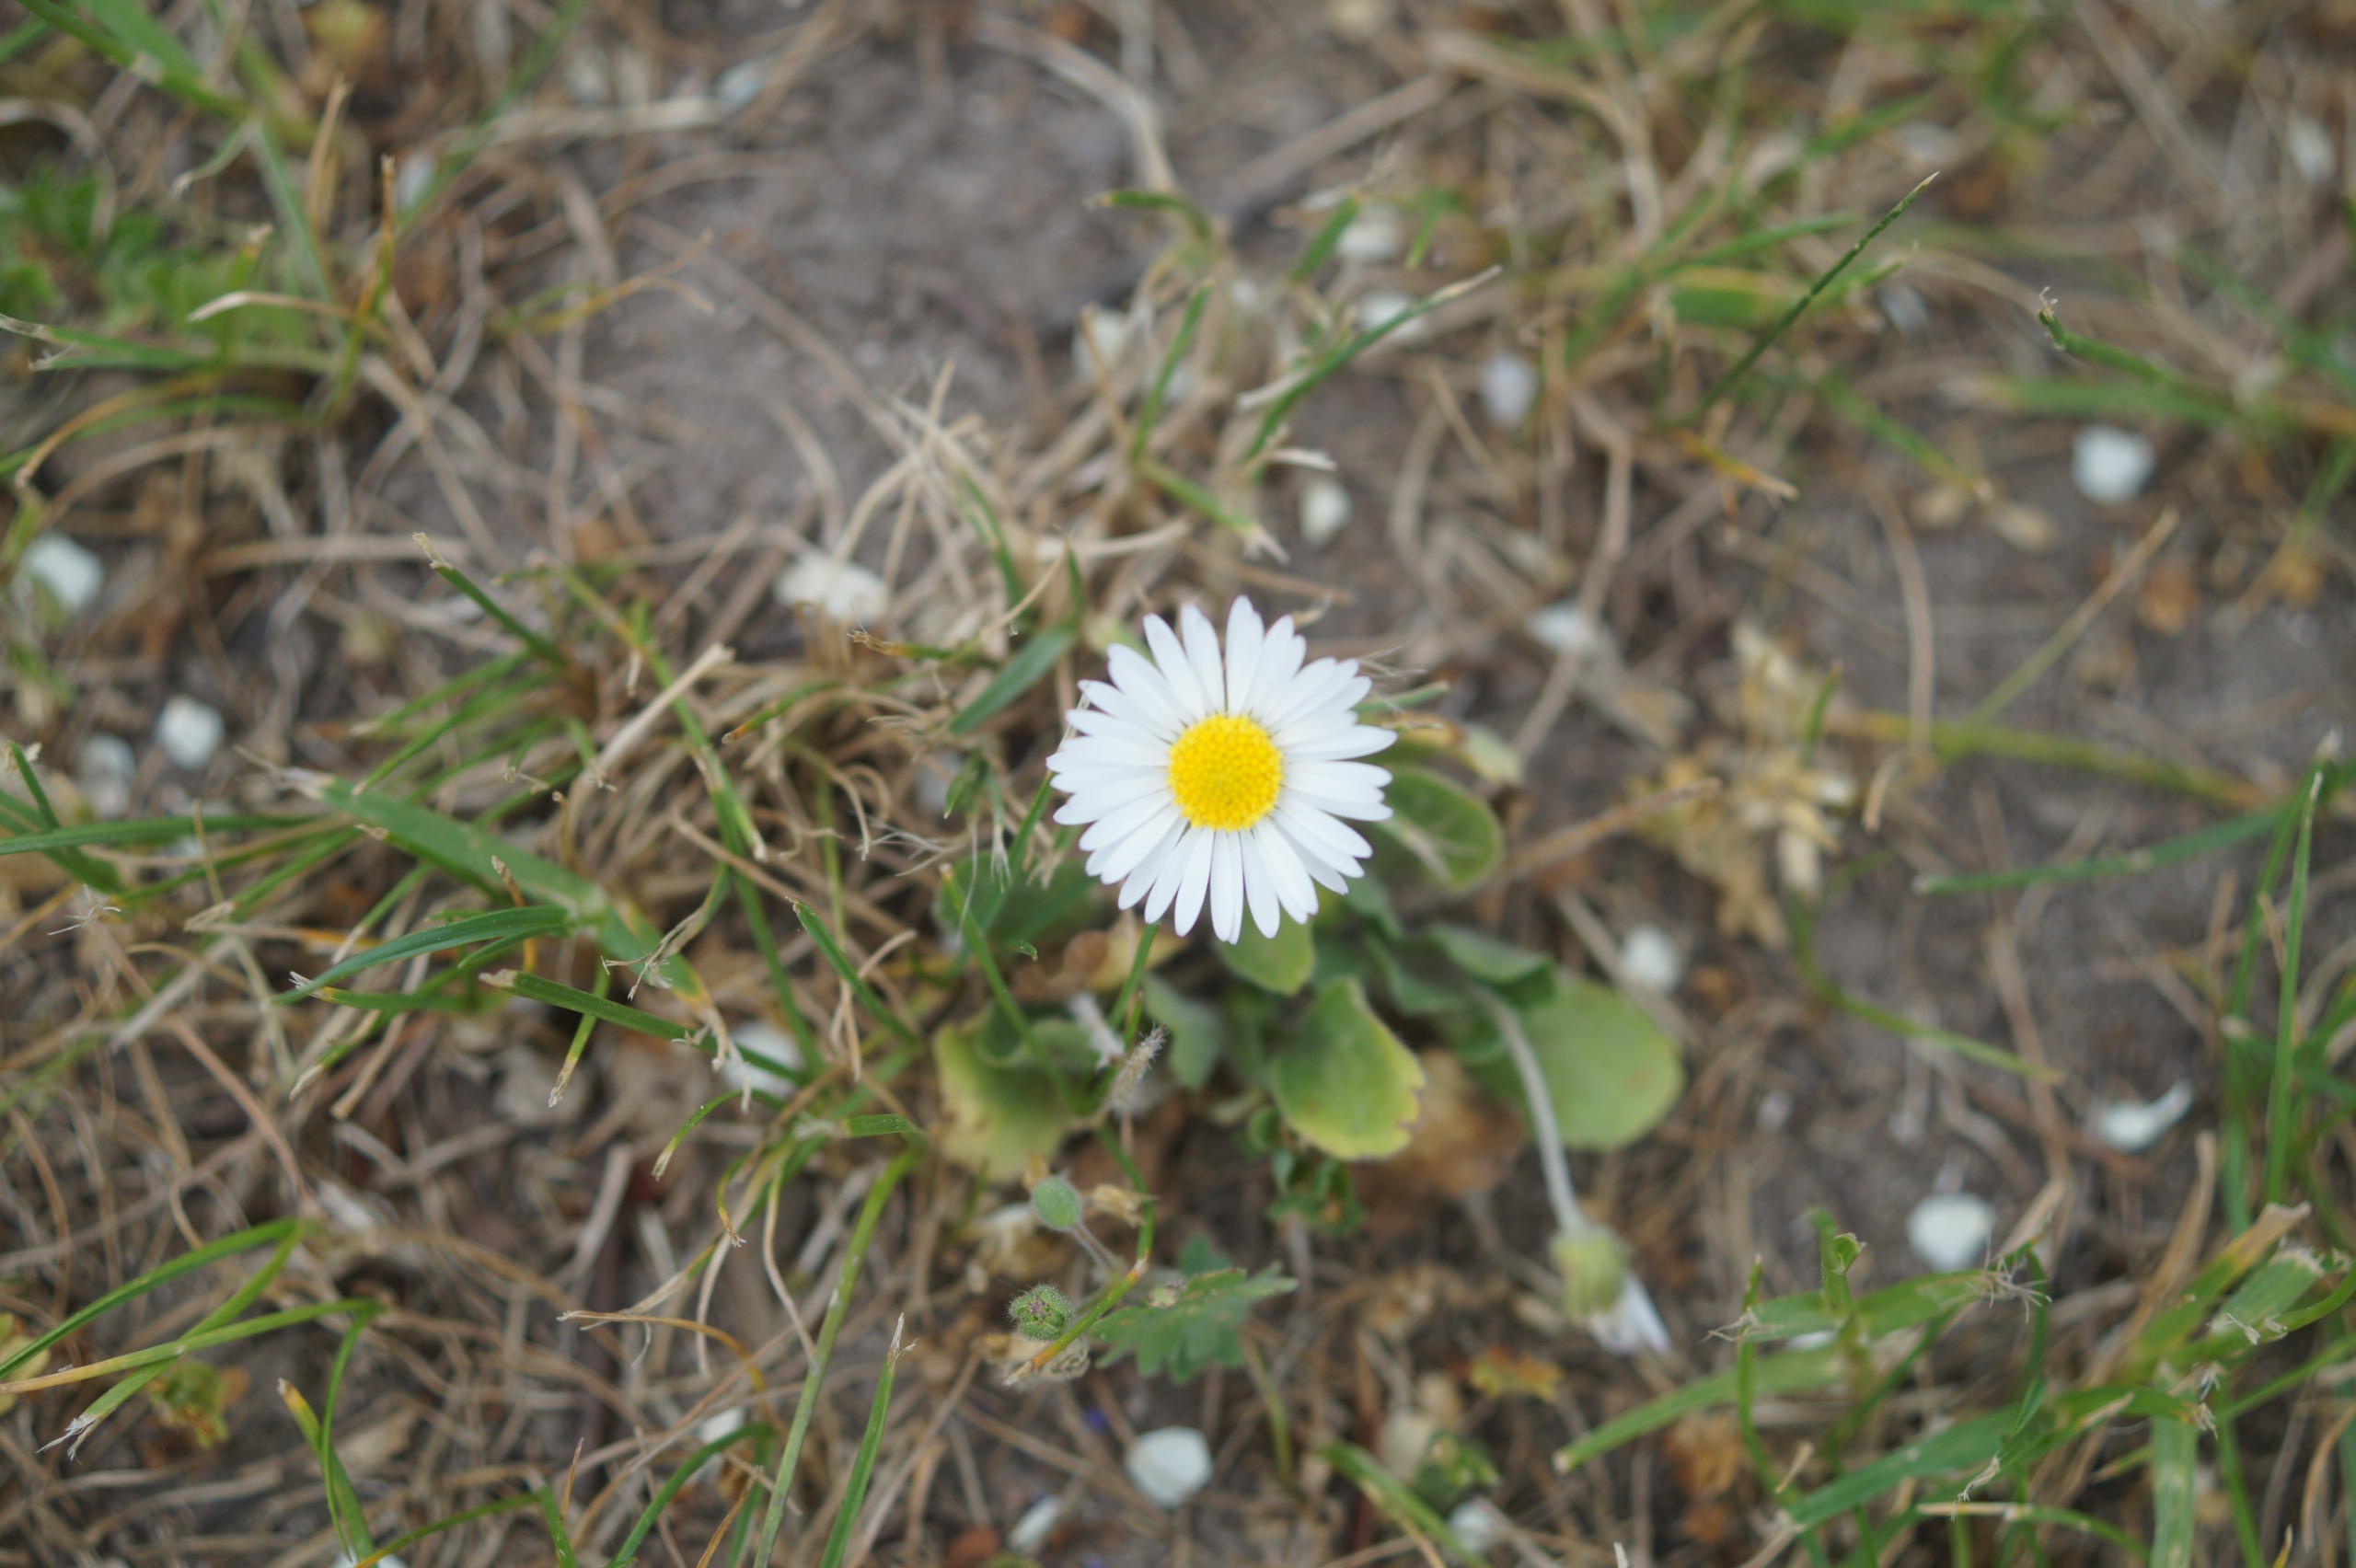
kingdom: Plantae
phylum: Tracheophyta
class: Magnoliopsida
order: Asterales
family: Asteraceae
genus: Bellis
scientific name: Bellis perennis
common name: Tusindfryd
